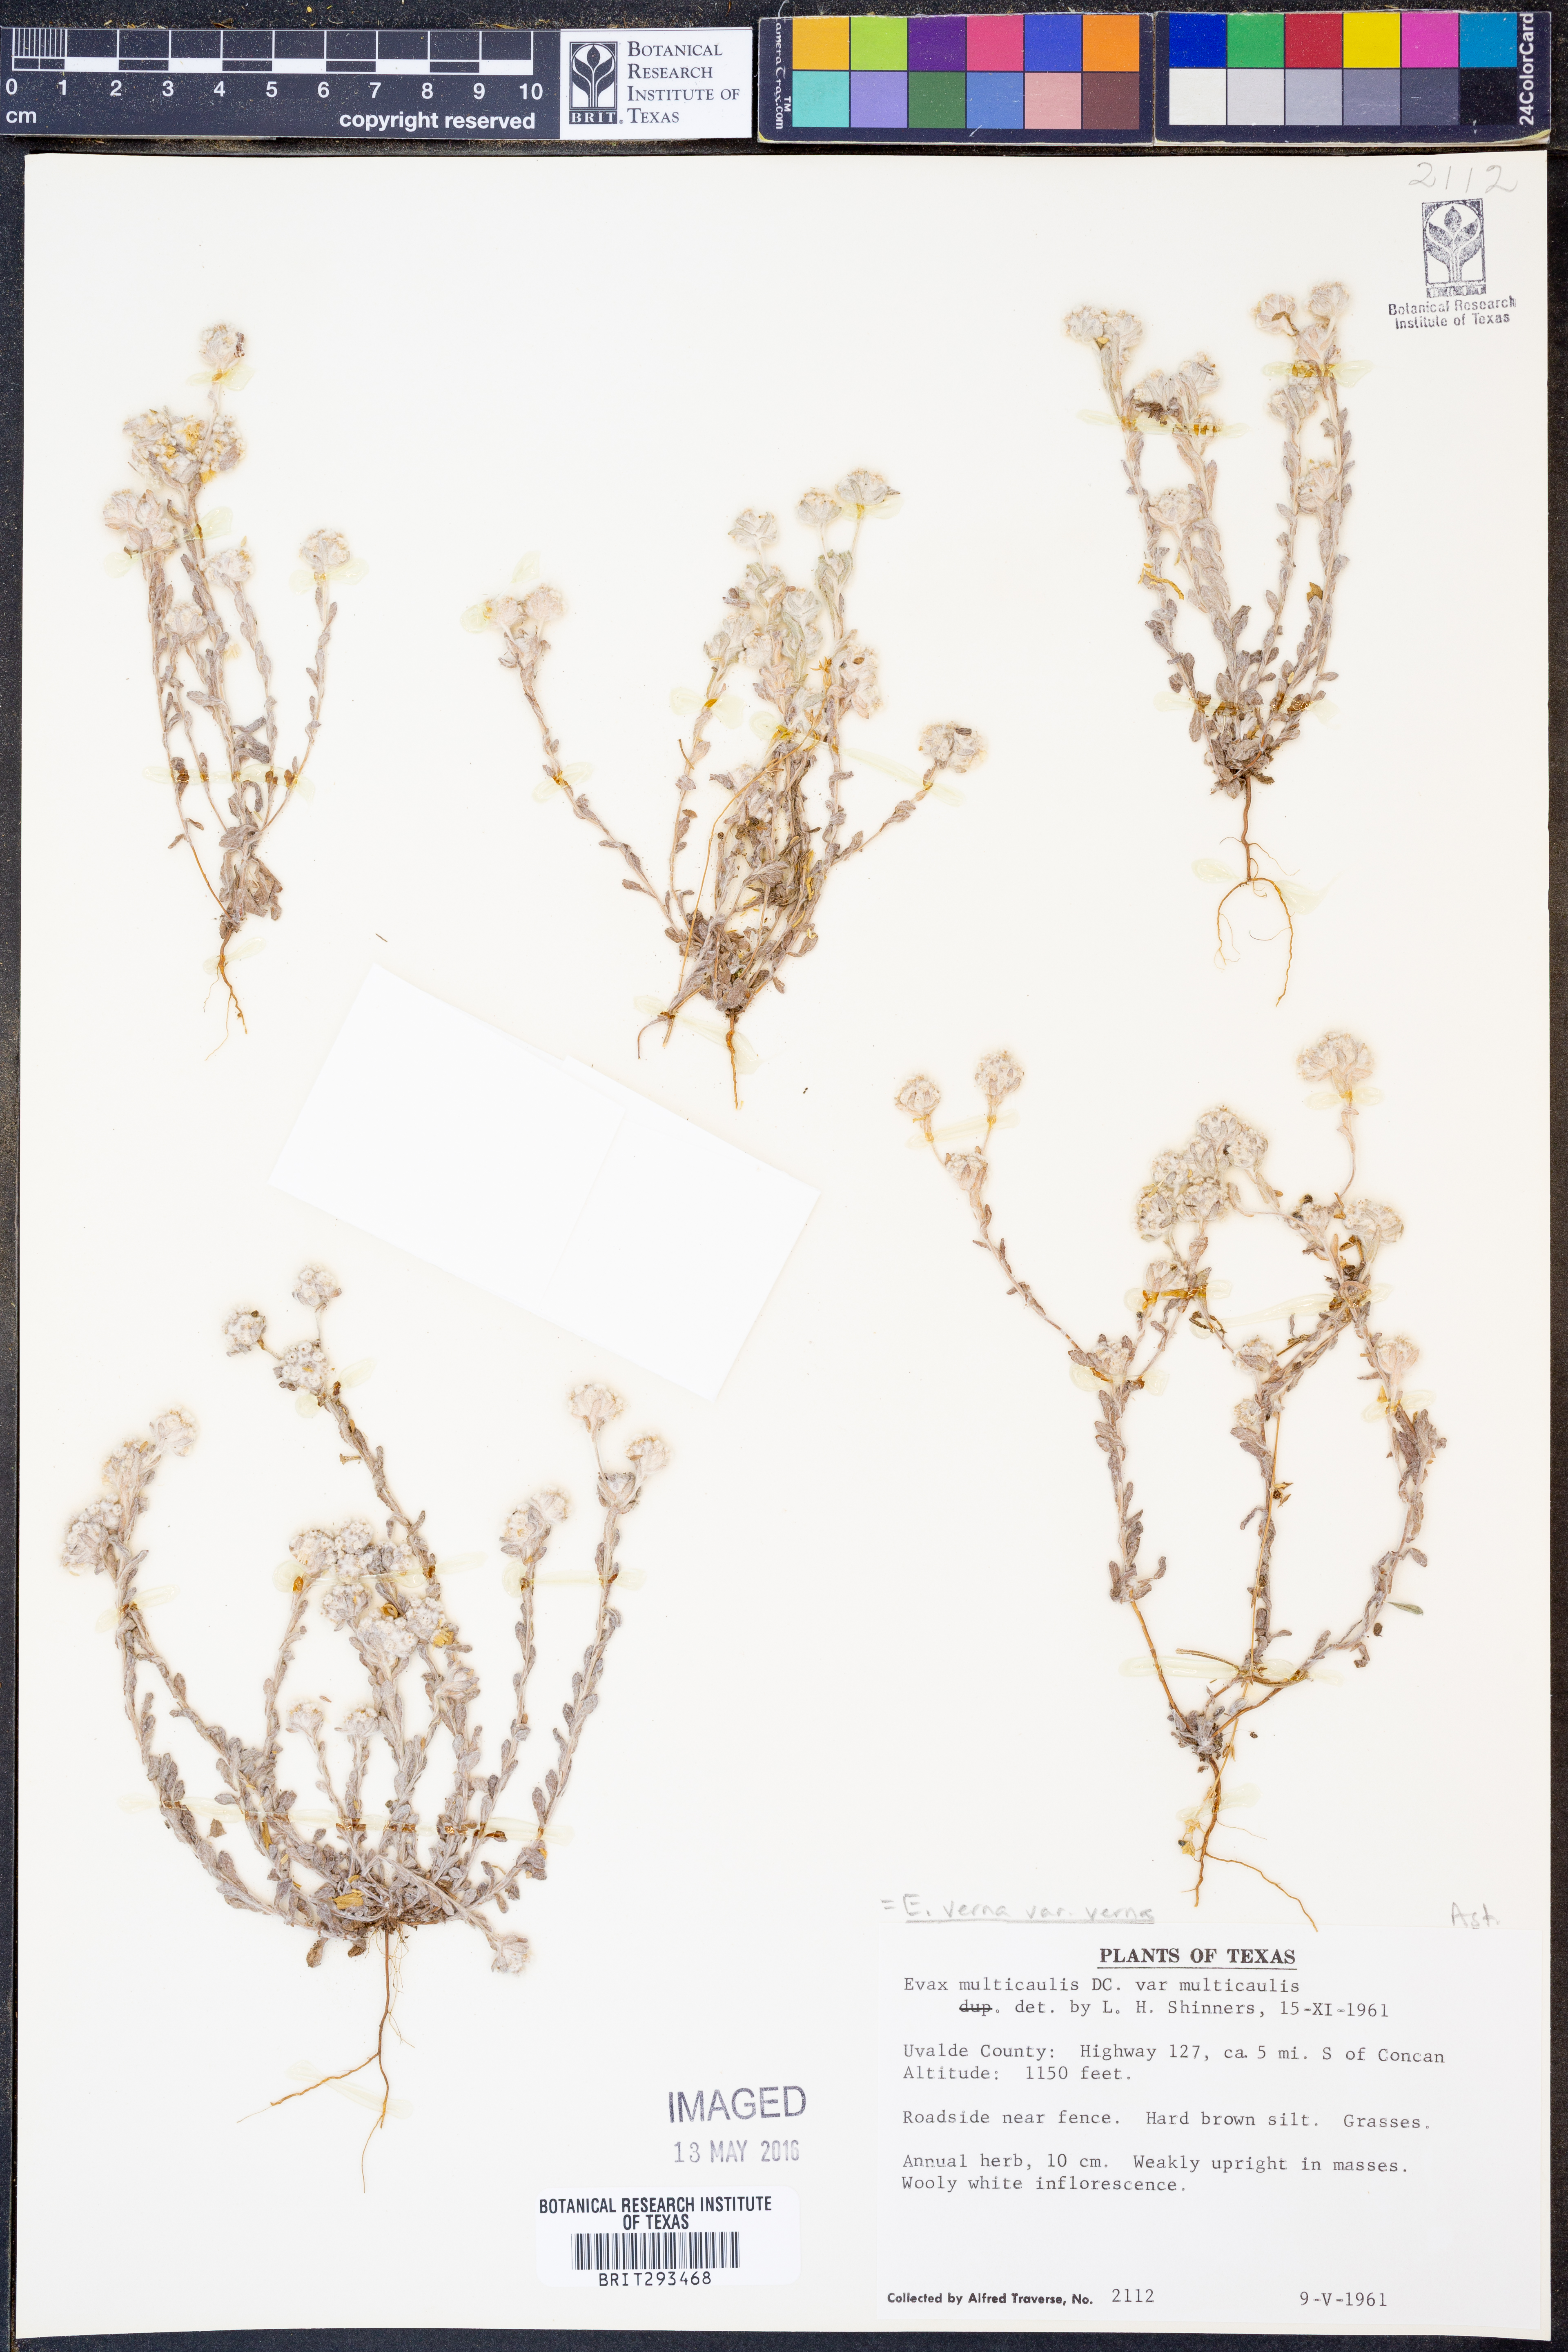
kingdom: Plantae
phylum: Tracheophyta
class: Magnoliopsida
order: Asterales
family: Asteraceae
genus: Diaperia
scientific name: Diaperia verna
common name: Many-stem rabbit-tobacco
